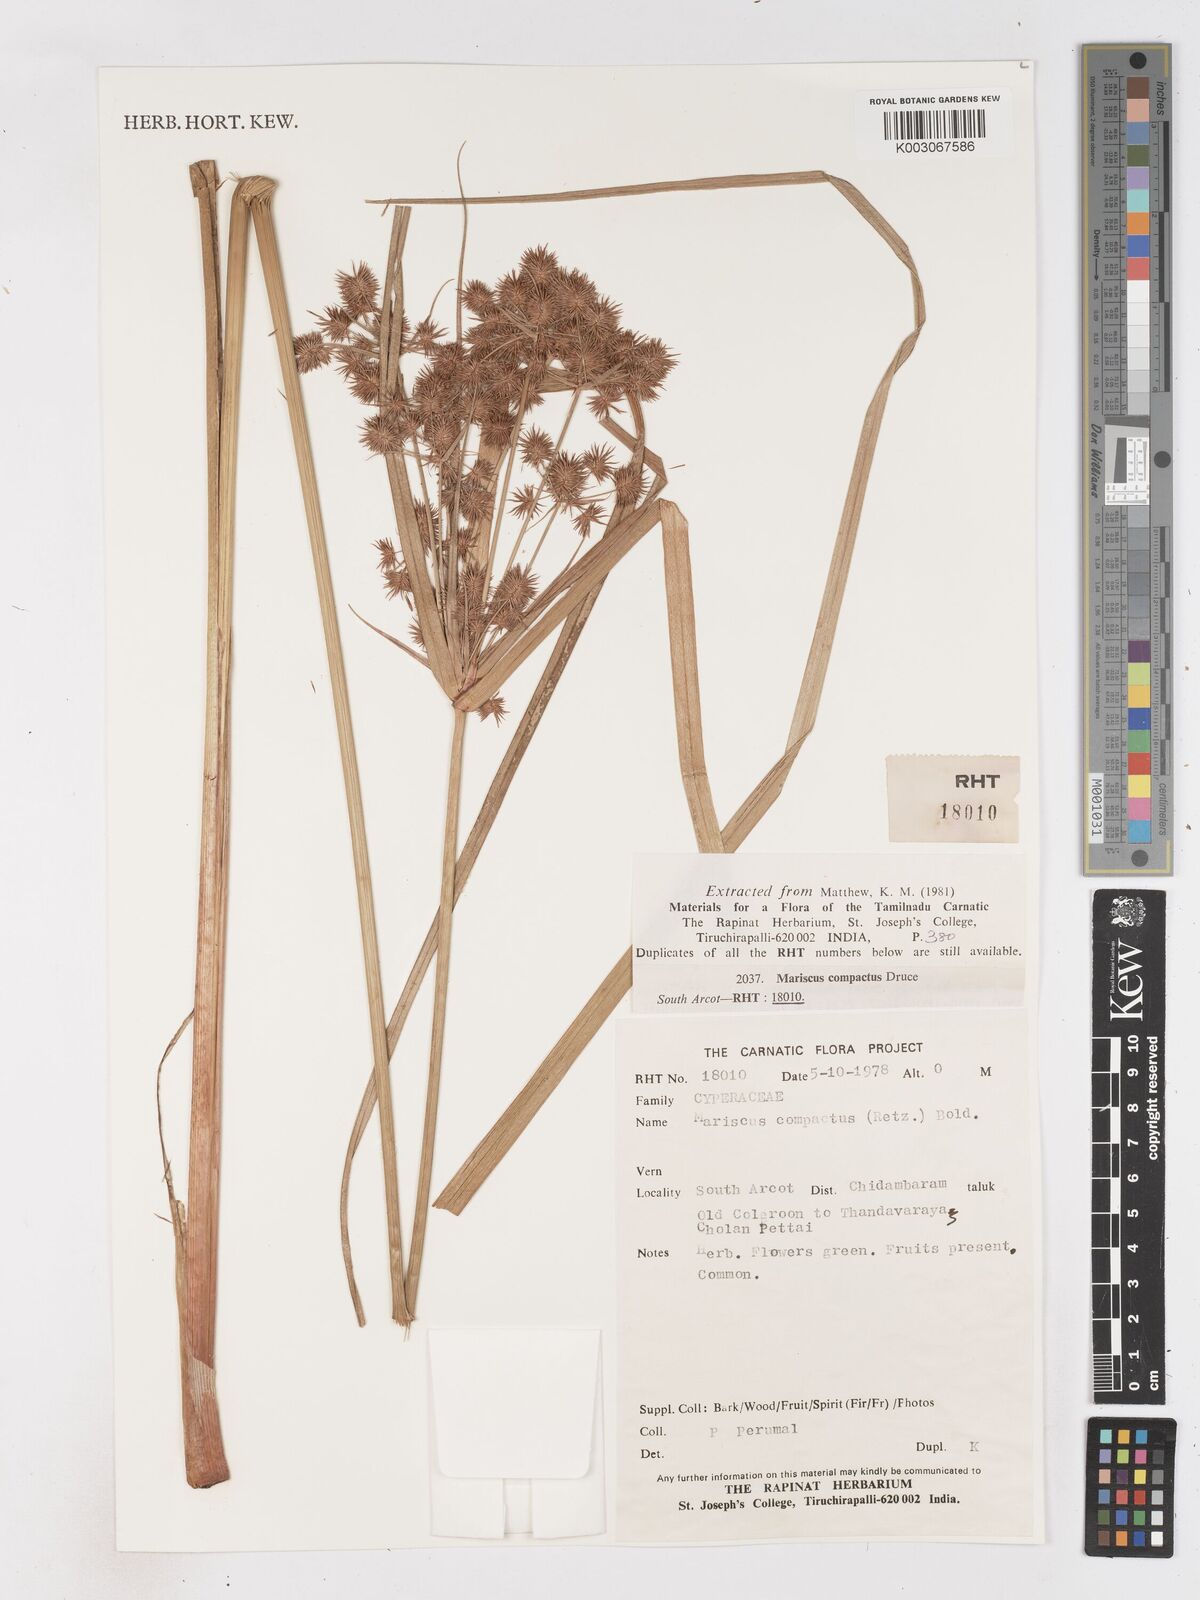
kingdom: Plantae
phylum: Tracheophyta
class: Liliopsida
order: Poales
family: Cyperaceae
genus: Cyperus
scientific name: Cyperus compactus
